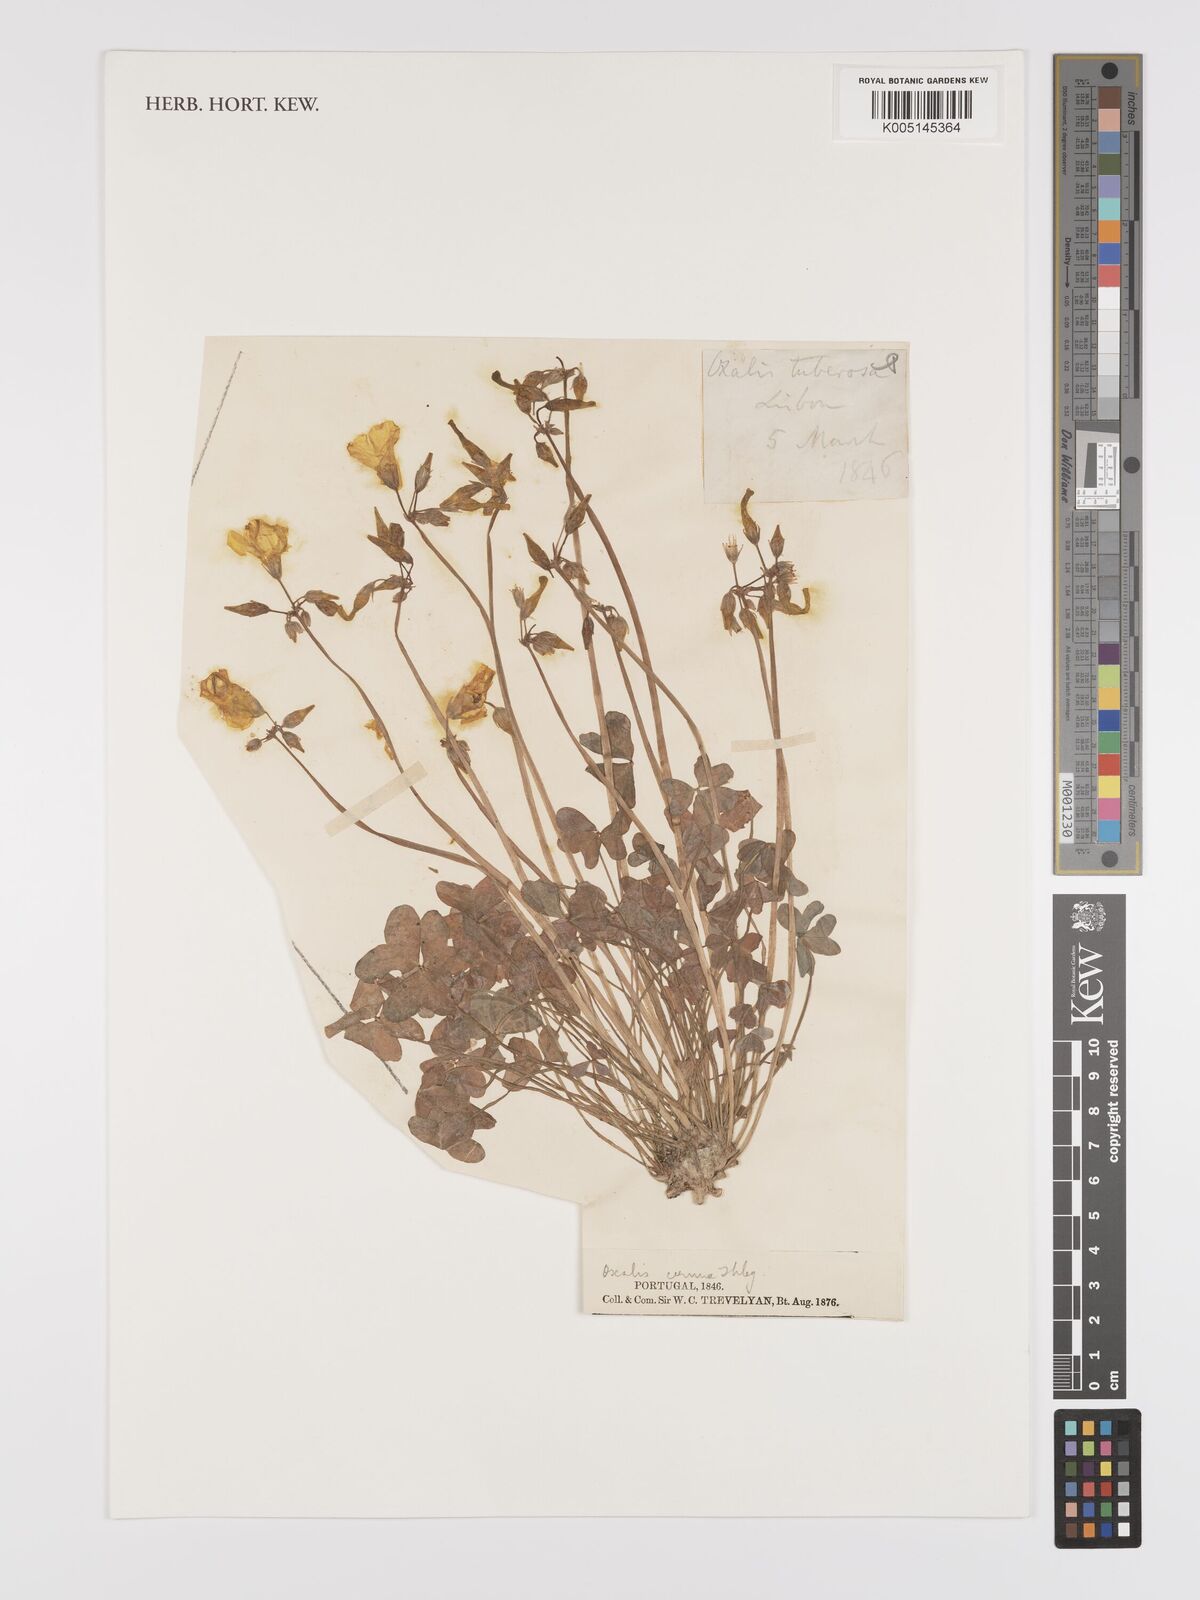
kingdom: Plantae
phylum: Tracheophyta
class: Magnoliopsida
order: Oxalidales
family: Oxalidaceae
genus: Oxalis
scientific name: Oxalis pes-caprae
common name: Bermuda-buttercup
